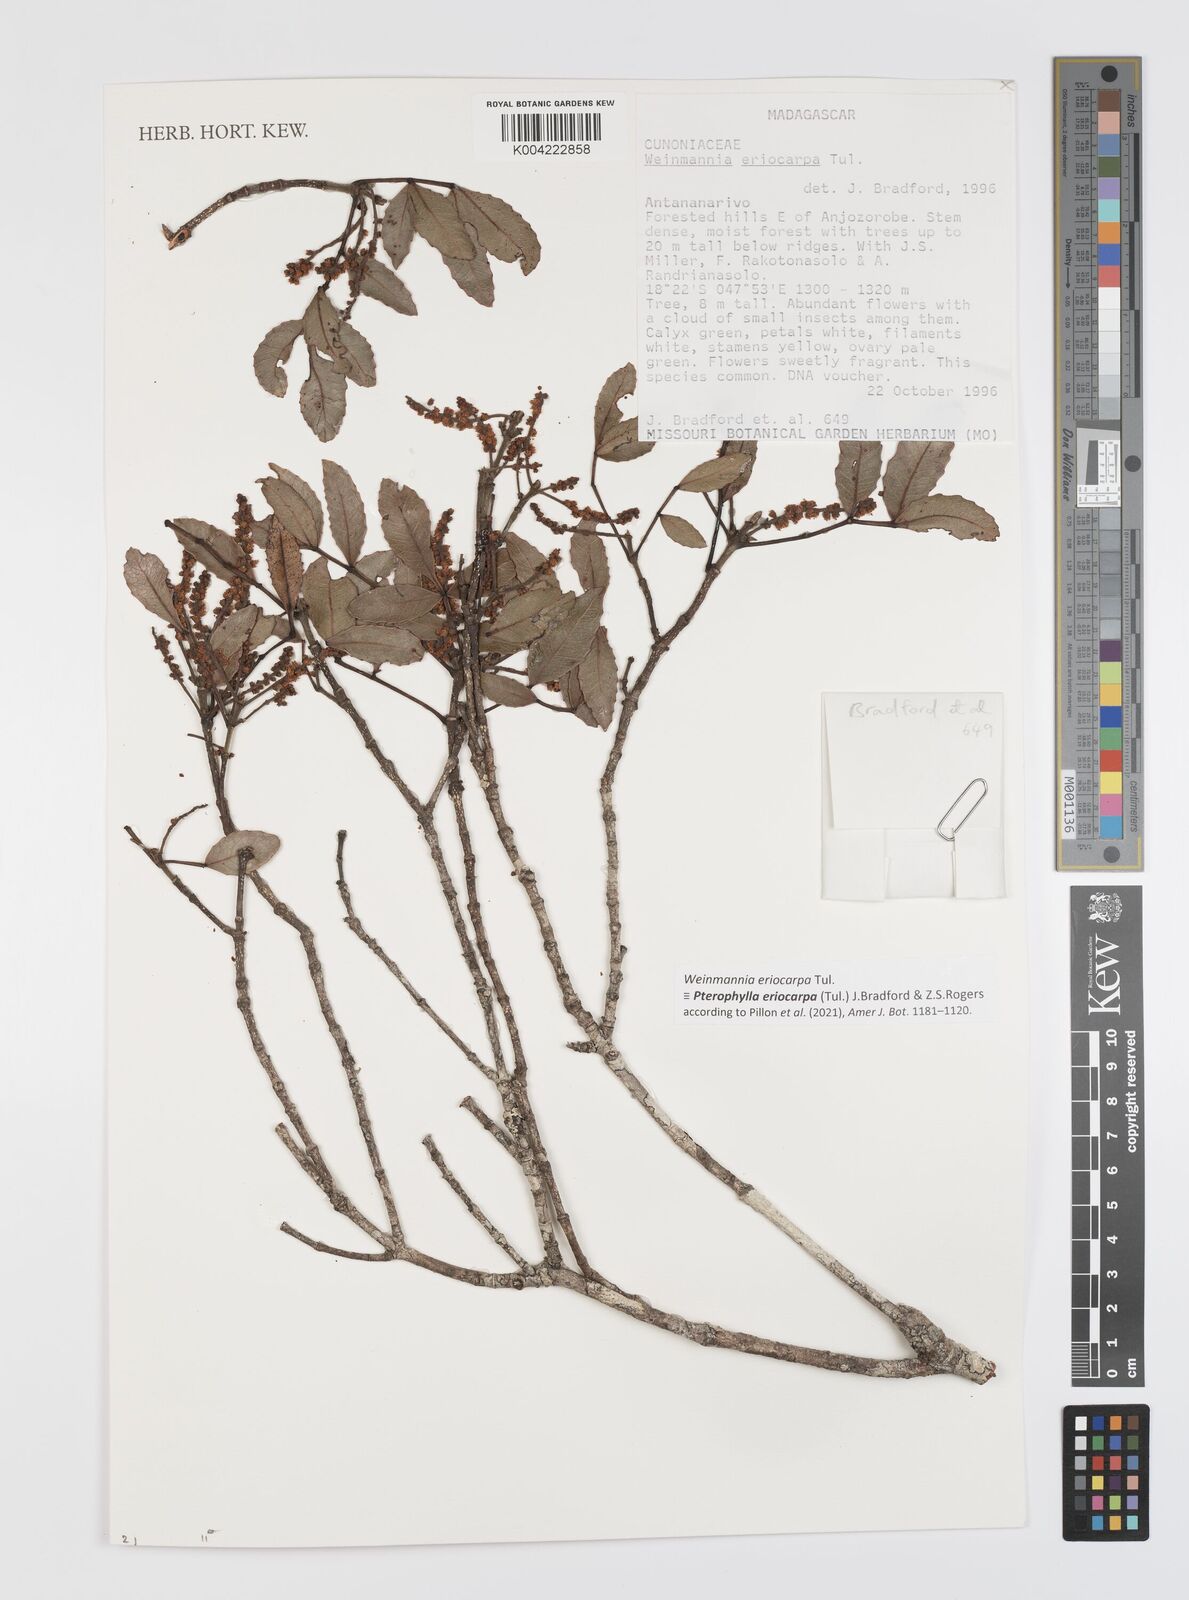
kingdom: Plantae
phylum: Tracheophyta
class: Magnoliopsida
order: Oxalidales
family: Cunoniaceae
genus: Pterophylla
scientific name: Pterophylla eriocarpa
